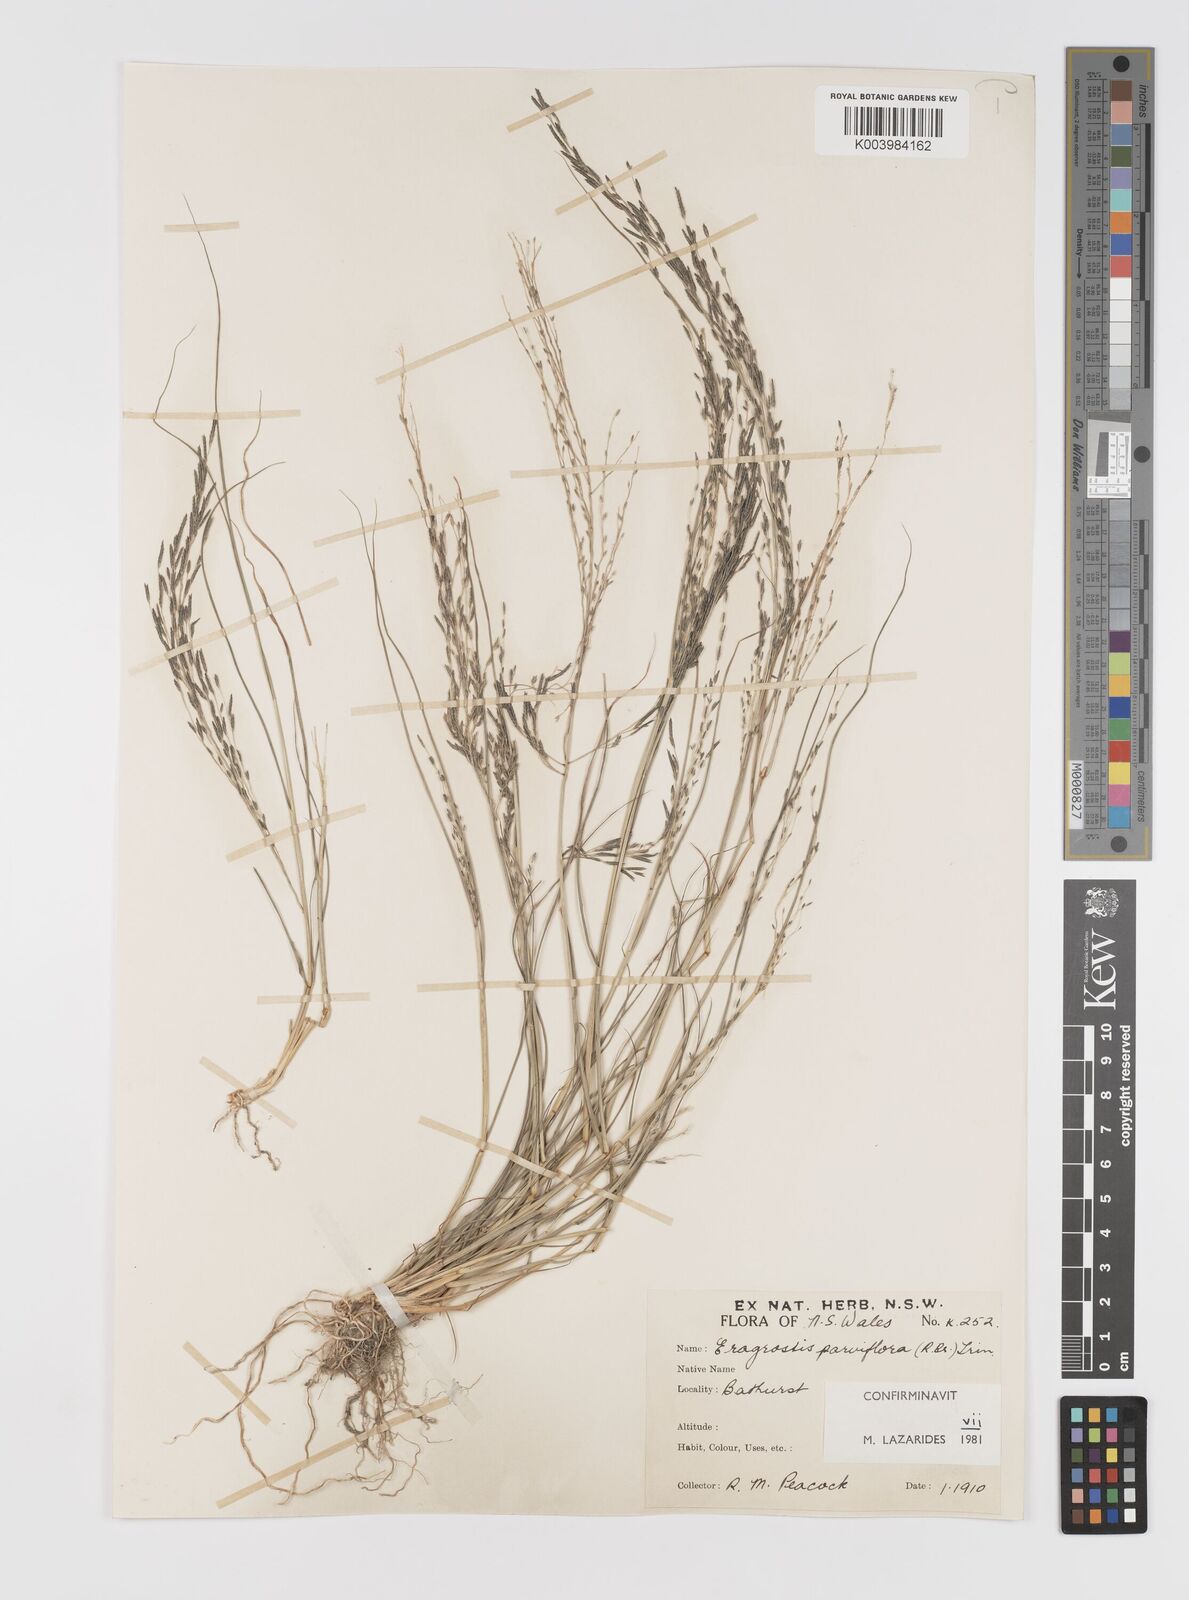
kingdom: Plantae
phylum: Tracheophyta
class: Liliopsida
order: Poales
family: Poaceae
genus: Eragrostis
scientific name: Eragrostis parviflora
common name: Weeping love-grass
